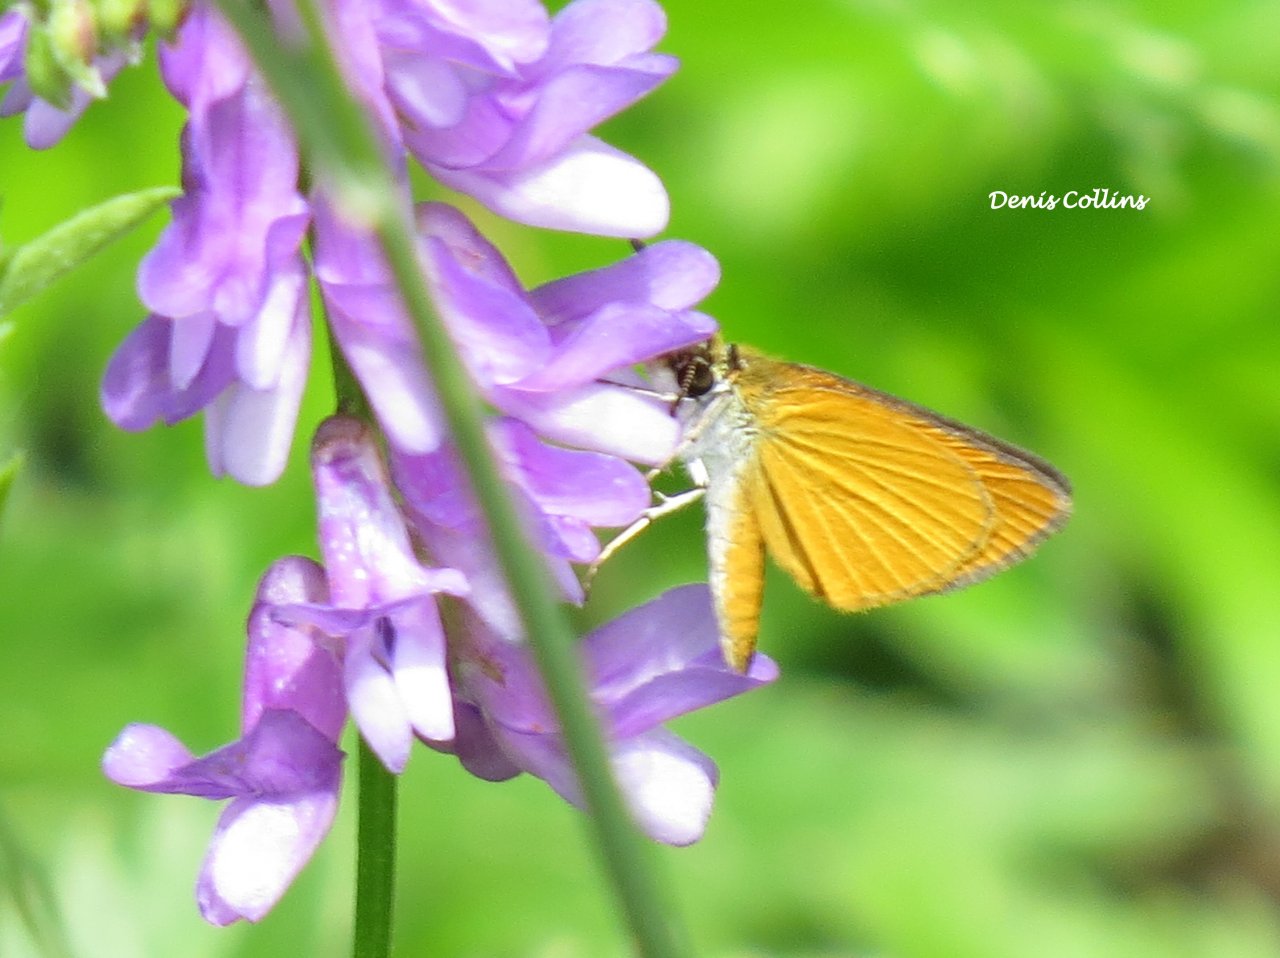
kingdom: Animalia
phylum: Arthropoda
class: Insecta
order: Lepidoptera
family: Hesperiidae
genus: Atrytone
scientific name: Atrytone delaware
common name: Delaware Skipper
